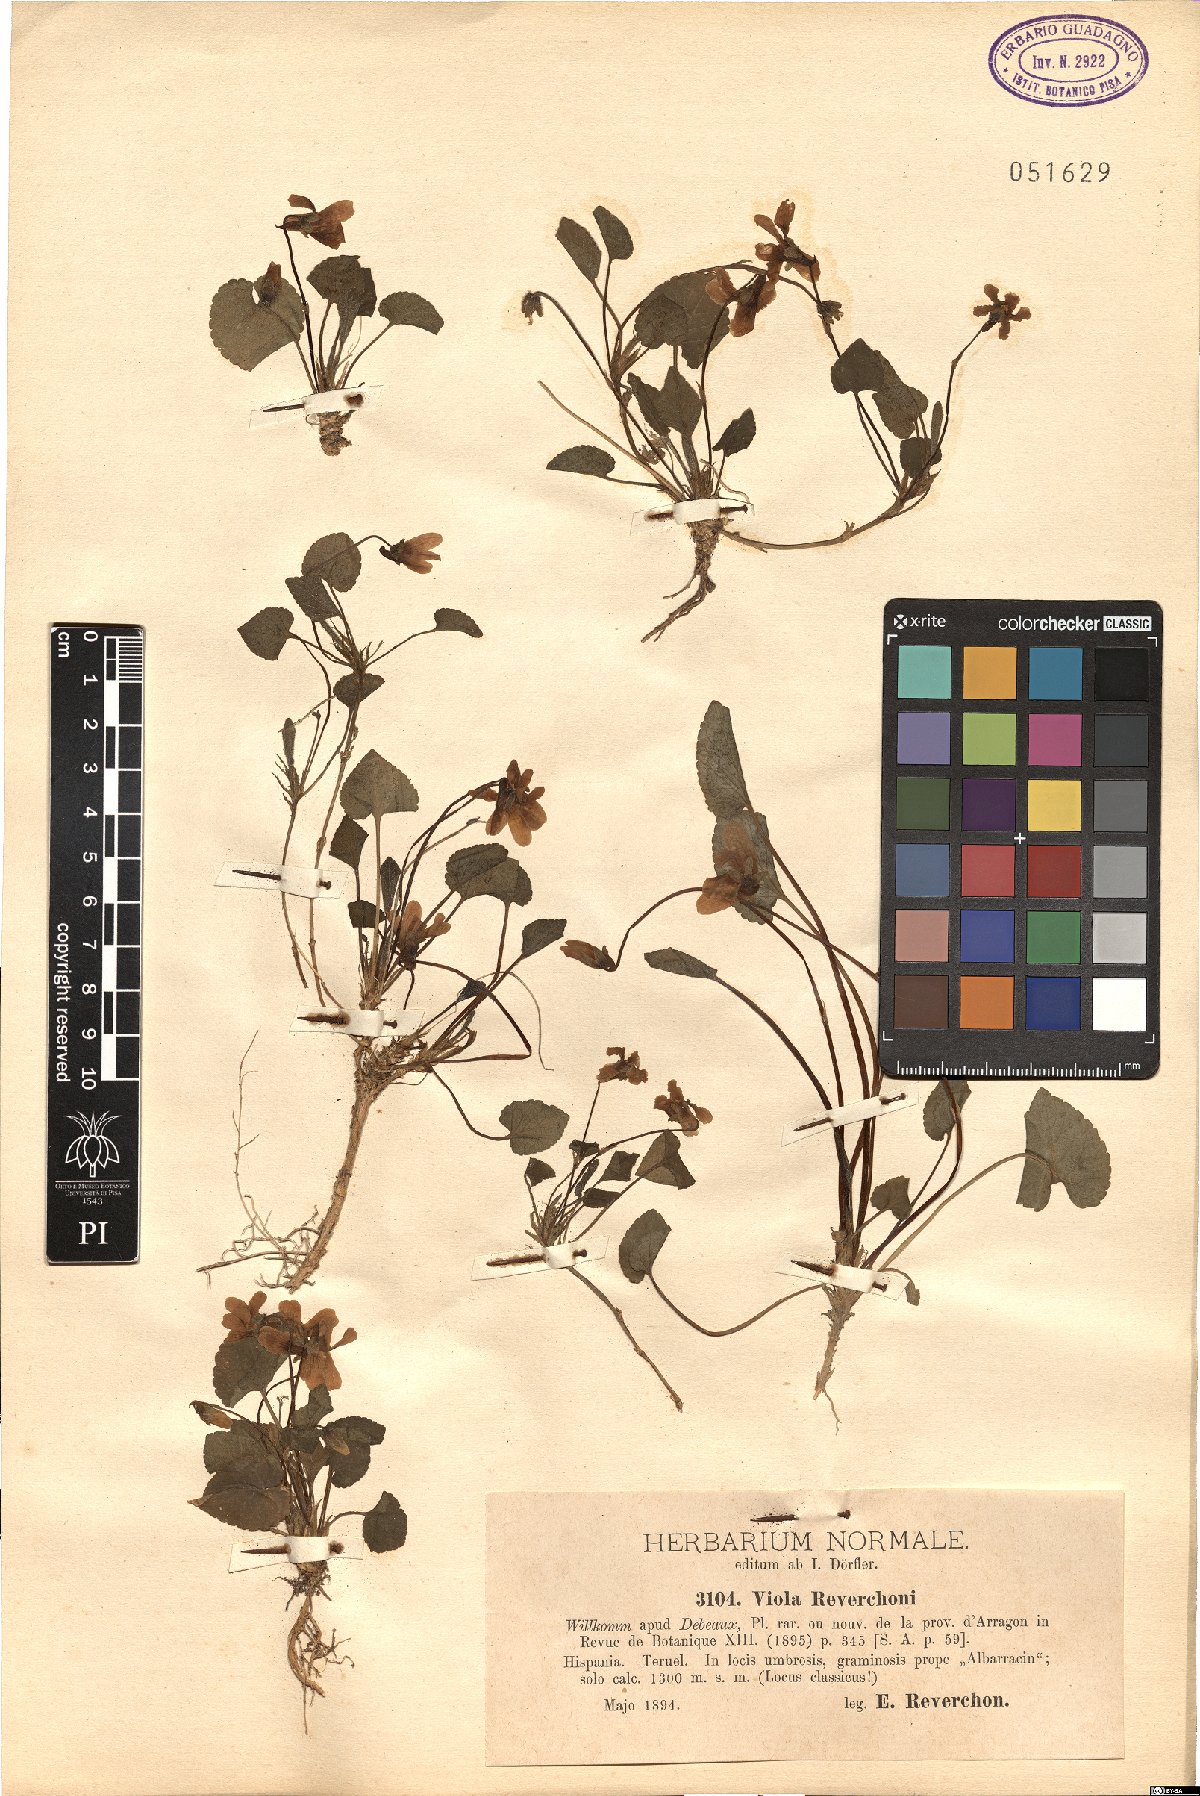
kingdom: Plantae
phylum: Tracheophyta
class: Magnoliopsida
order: Malpighiales
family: Violaceae
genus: Viola
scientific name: Viola reverchonii
